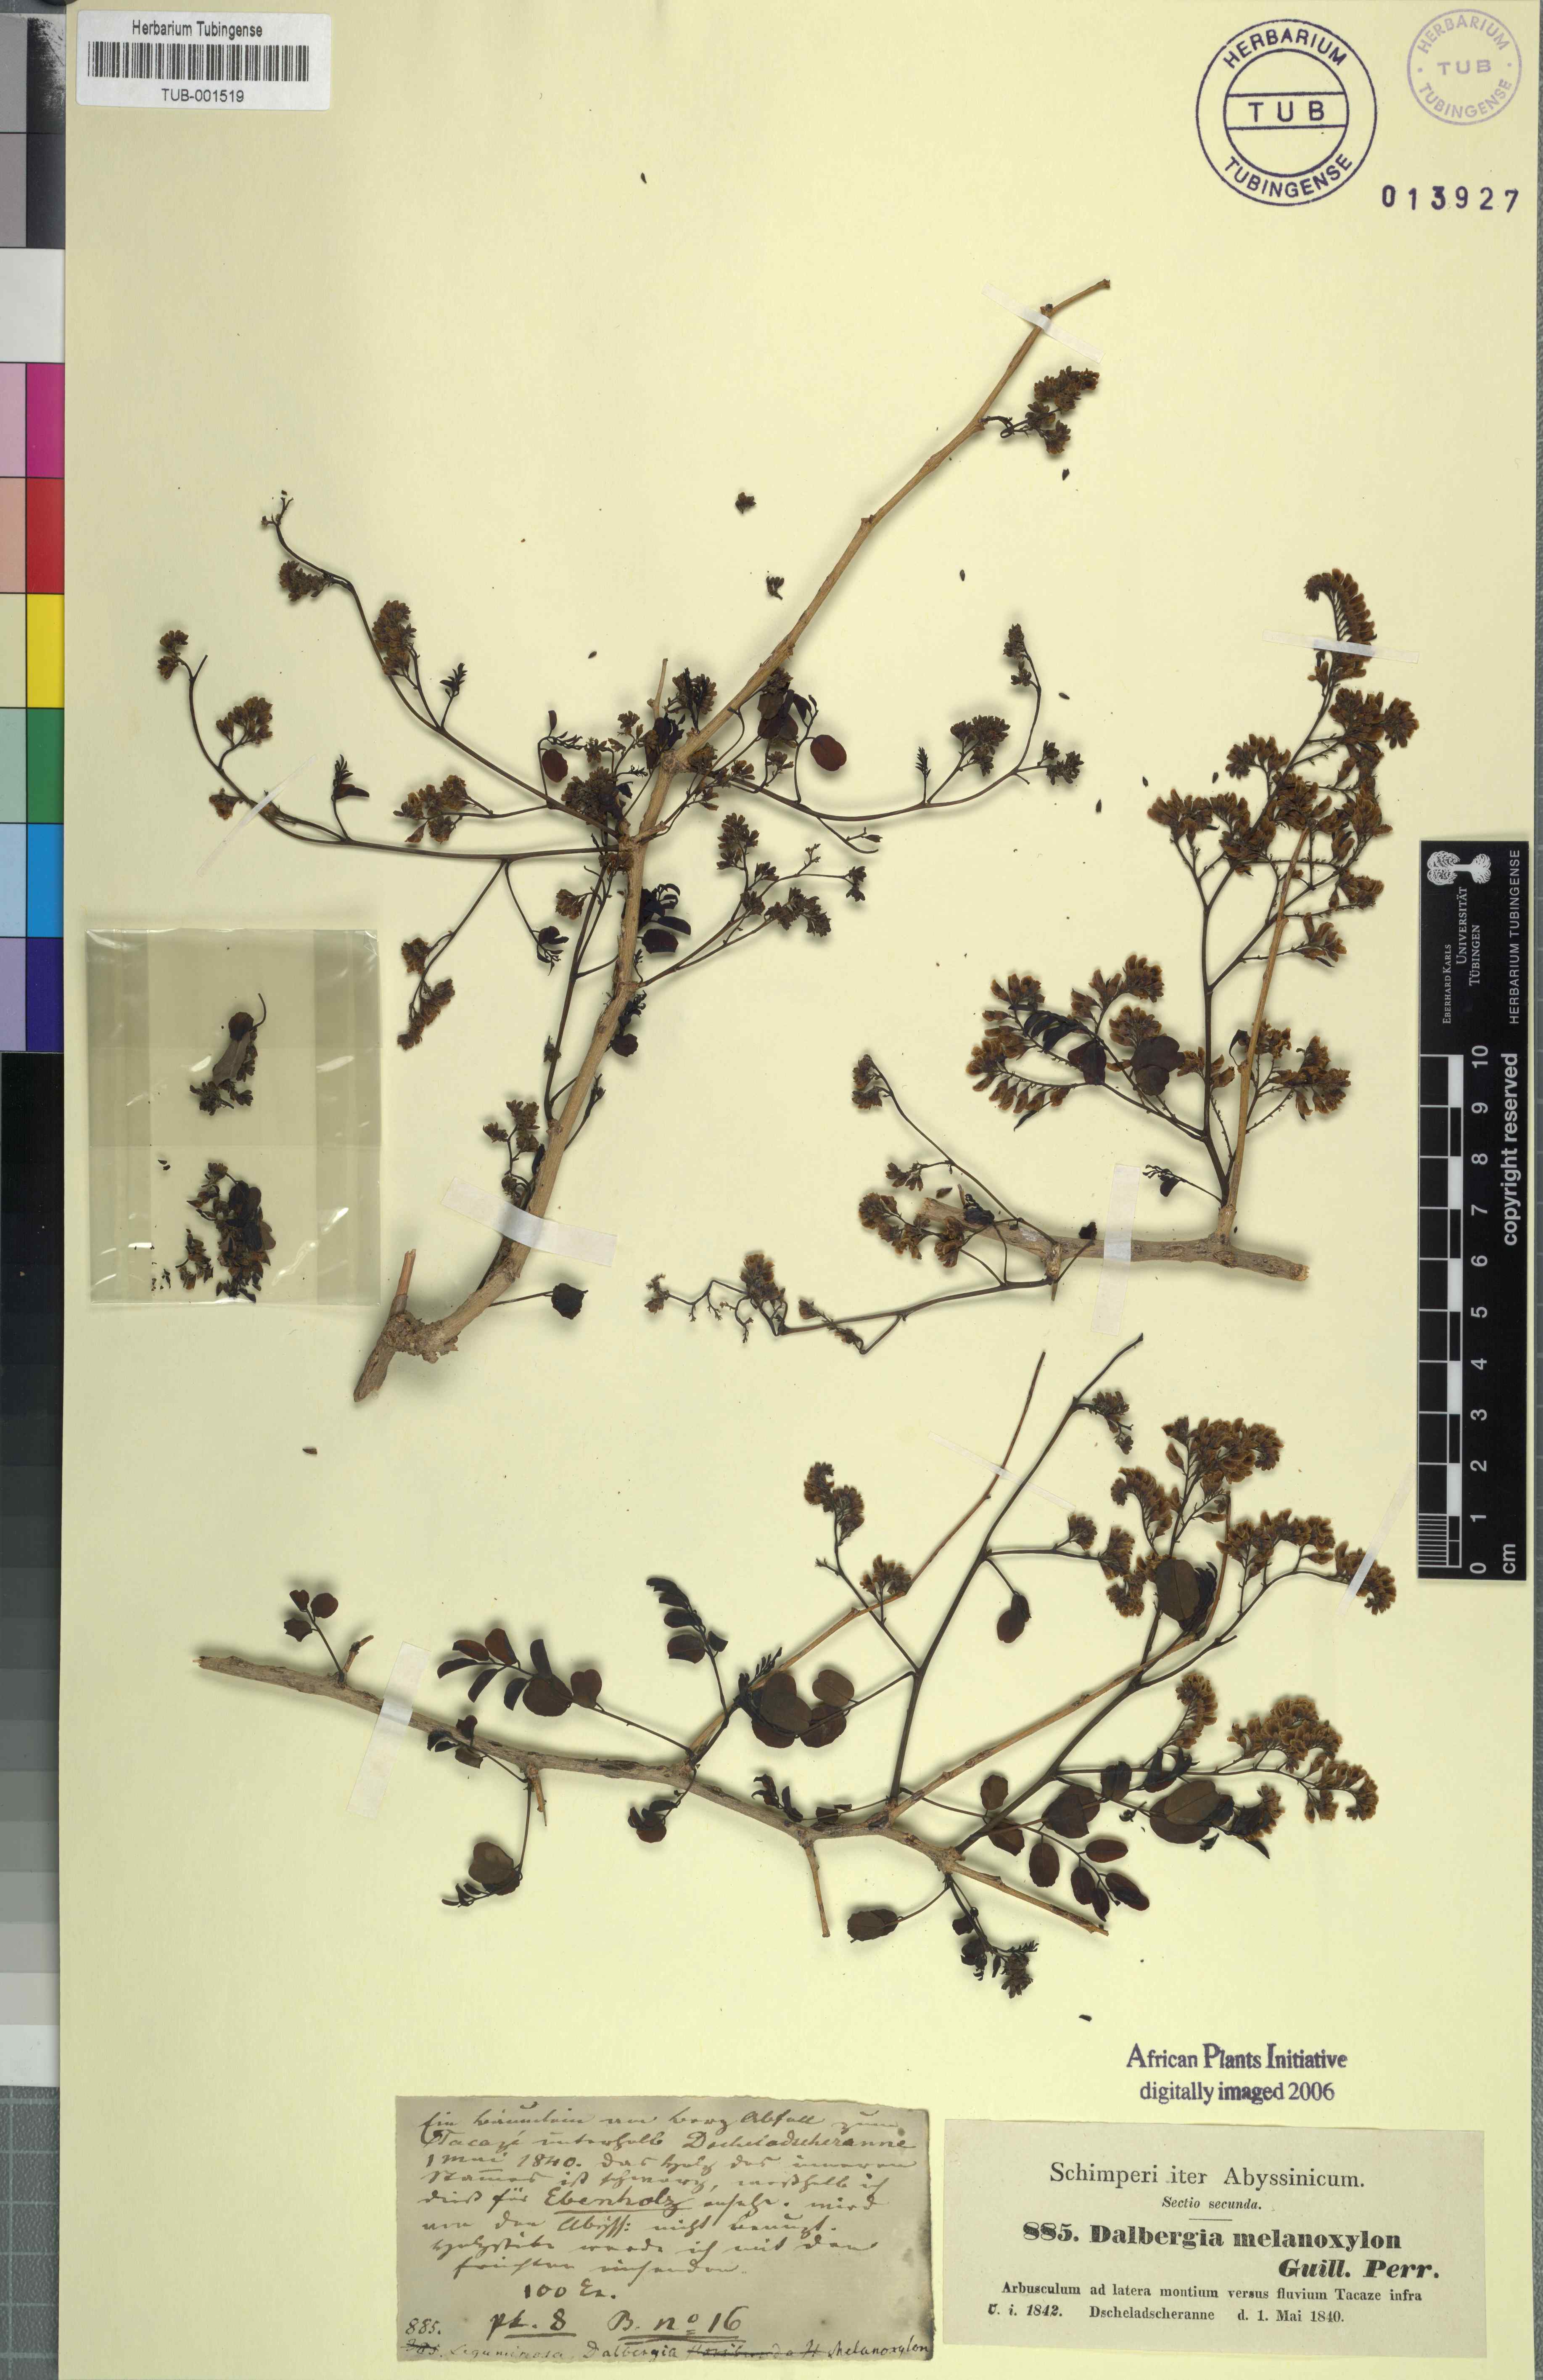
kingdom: Plantae
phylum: Tracheophyta
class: Magnoliopsida
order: Fabales
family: Fabaceae
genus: Dalbergia
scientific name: Dalbergia melanoxylon
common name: African blackwood
